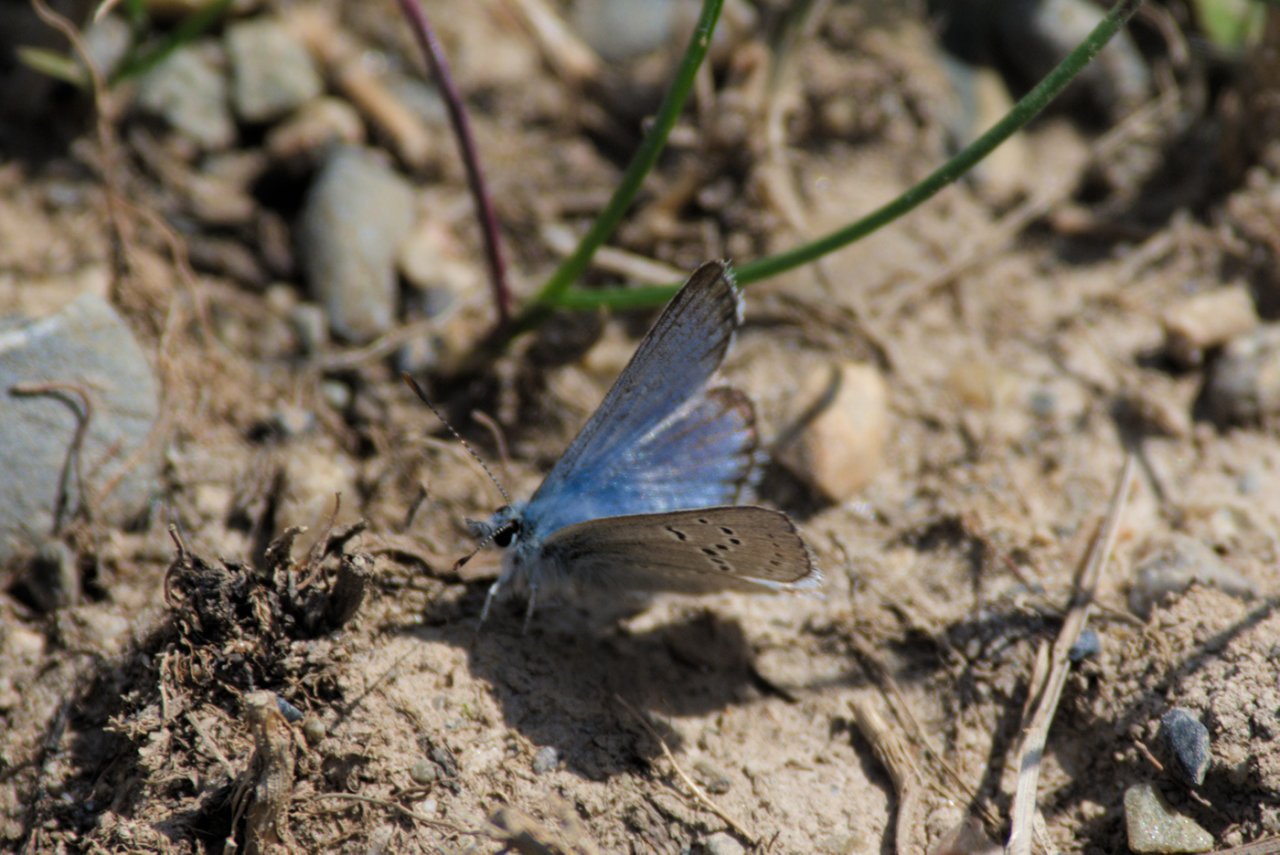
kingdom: Animalia
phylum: Arthropoda
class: Insecta
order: Lepidoptera
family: Lycaenidae
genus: Plebejus
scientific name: Plebejus saepiolus
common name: Greenish Blue
